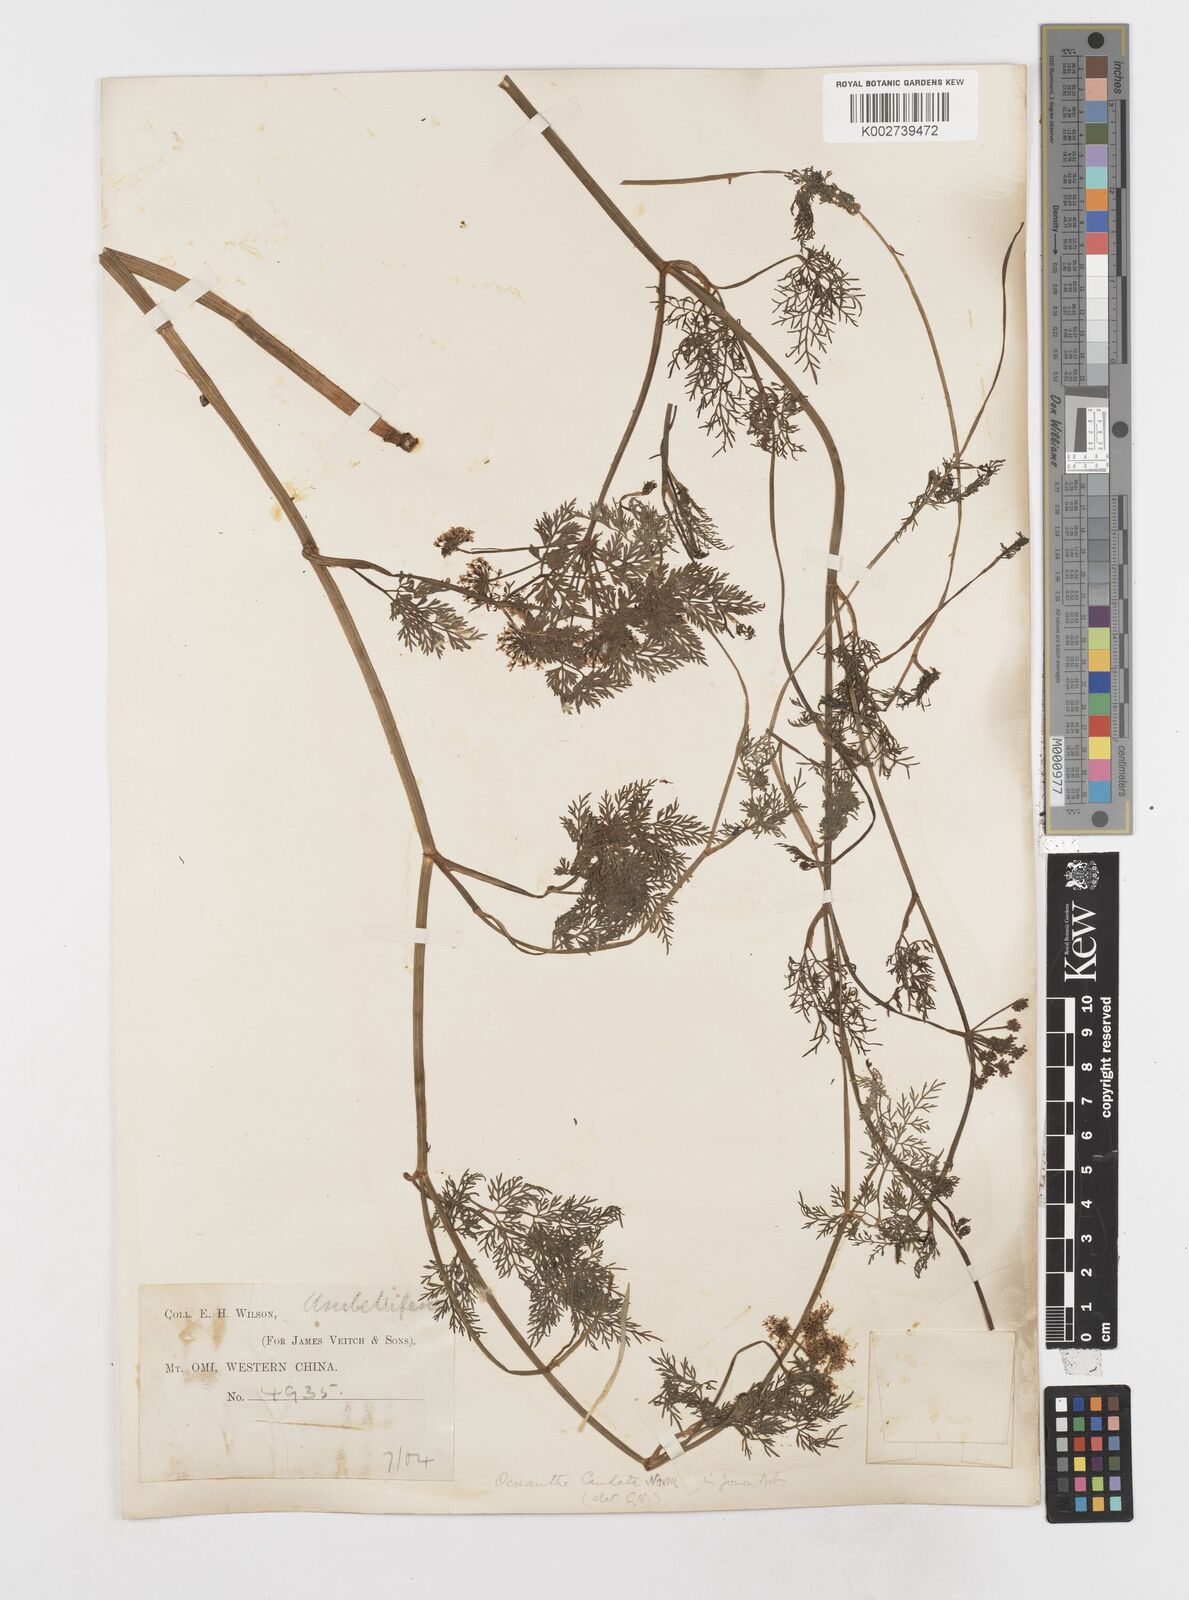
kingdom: Plantae
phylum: Tracheophyta
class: Magnoliopsida
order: Apiales
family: Apiaceae
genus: Oenanthe
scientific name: Oenanthe thomsonii
